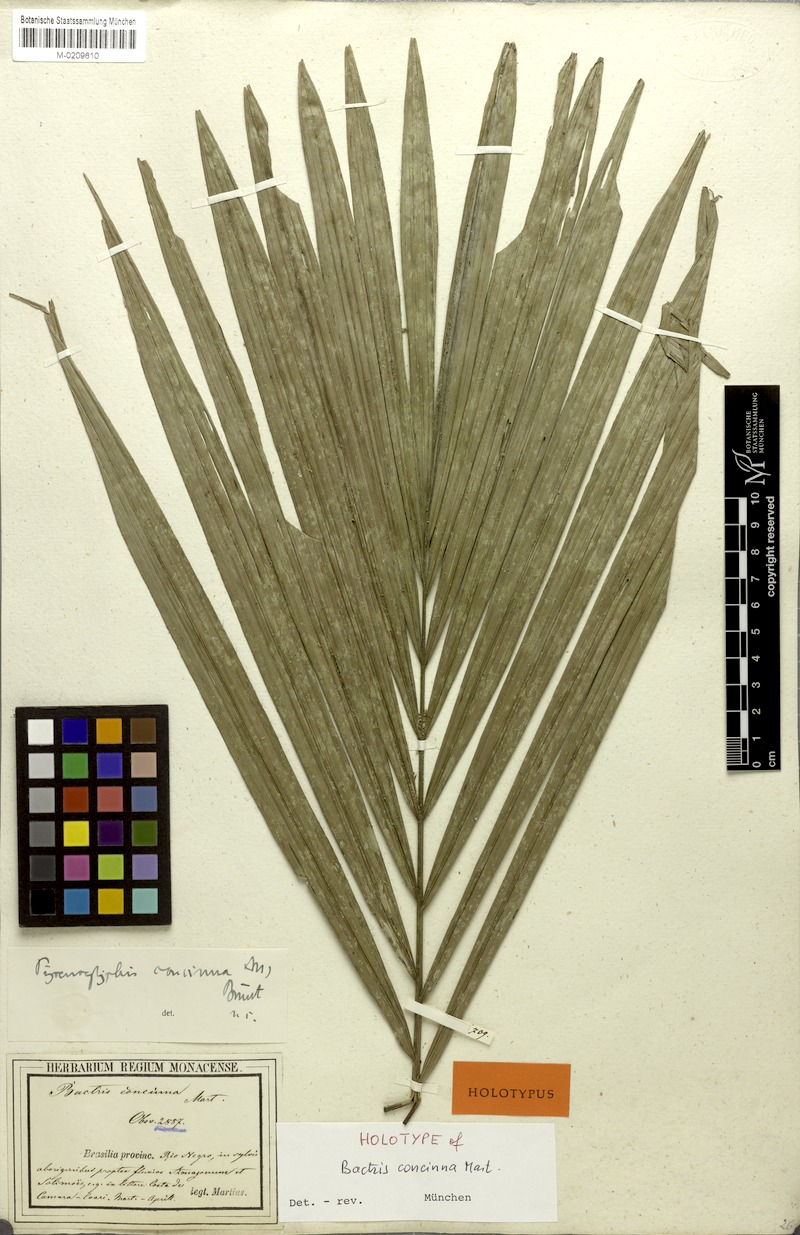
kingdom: Plantae
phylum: Tracheophyta
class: Liliopsida
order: Arecales
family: Arecaceae
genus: Bactris
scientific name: Bactris concinna
